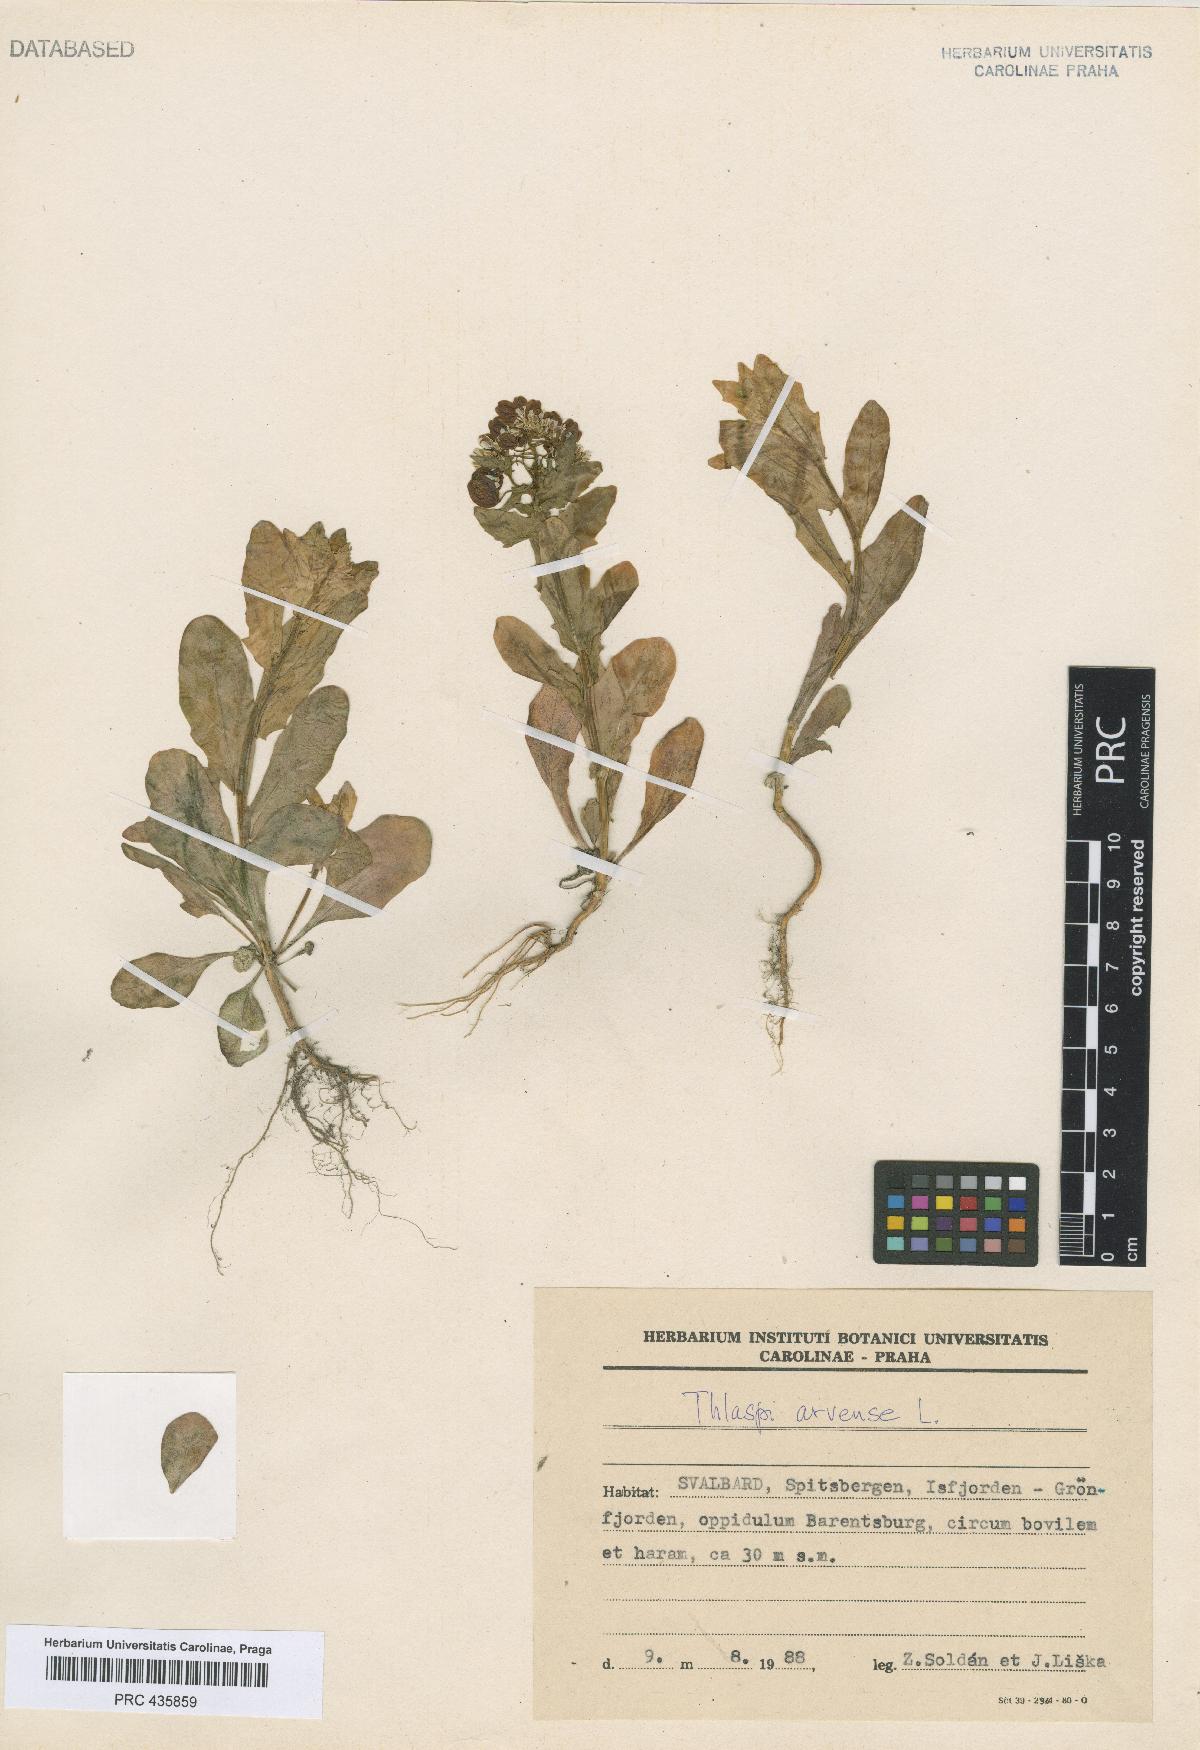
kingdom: Plantae
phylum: Tracheophyta
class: Magnoliopsida
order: Brassicales
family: Brassicaceae
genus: Thlaspi
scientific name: Thlaspi arvense
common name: Field pennycress
